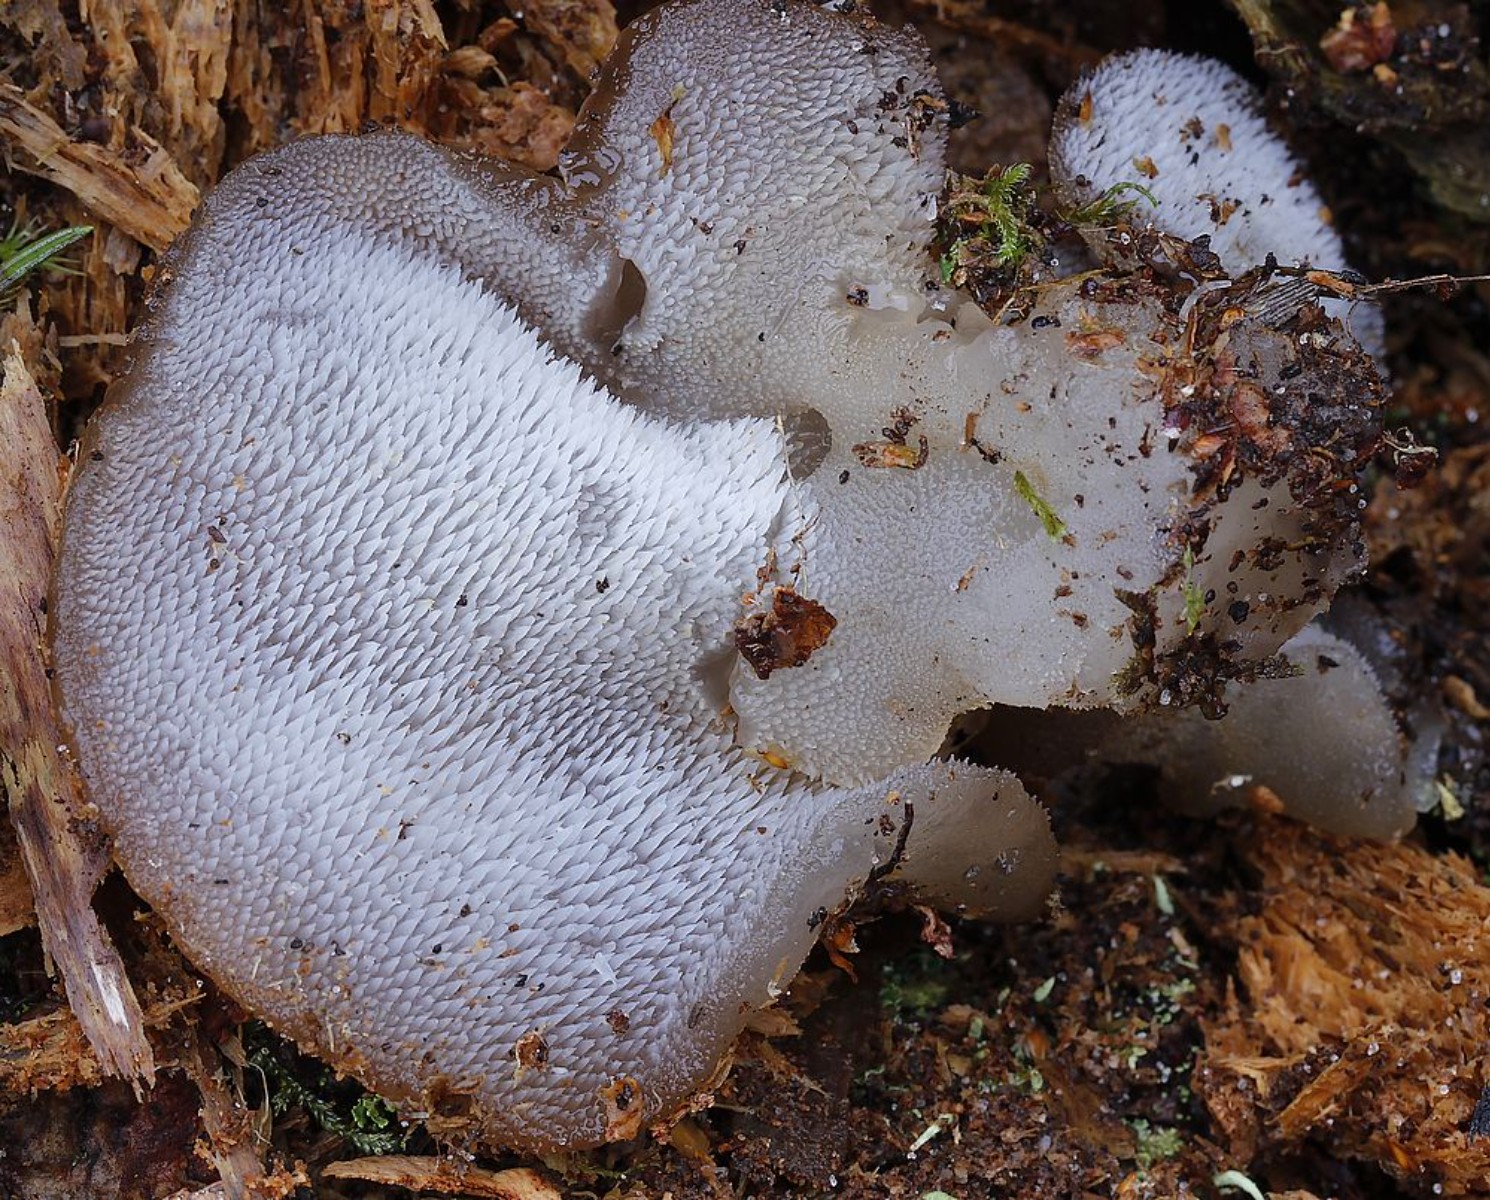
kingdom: Fungi
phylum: Basidiomycota
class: Agaricomycetes
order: Auriculariales
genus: Pseudohydnum
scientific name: Pseudohydnum gelatinosum
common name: bævretand
